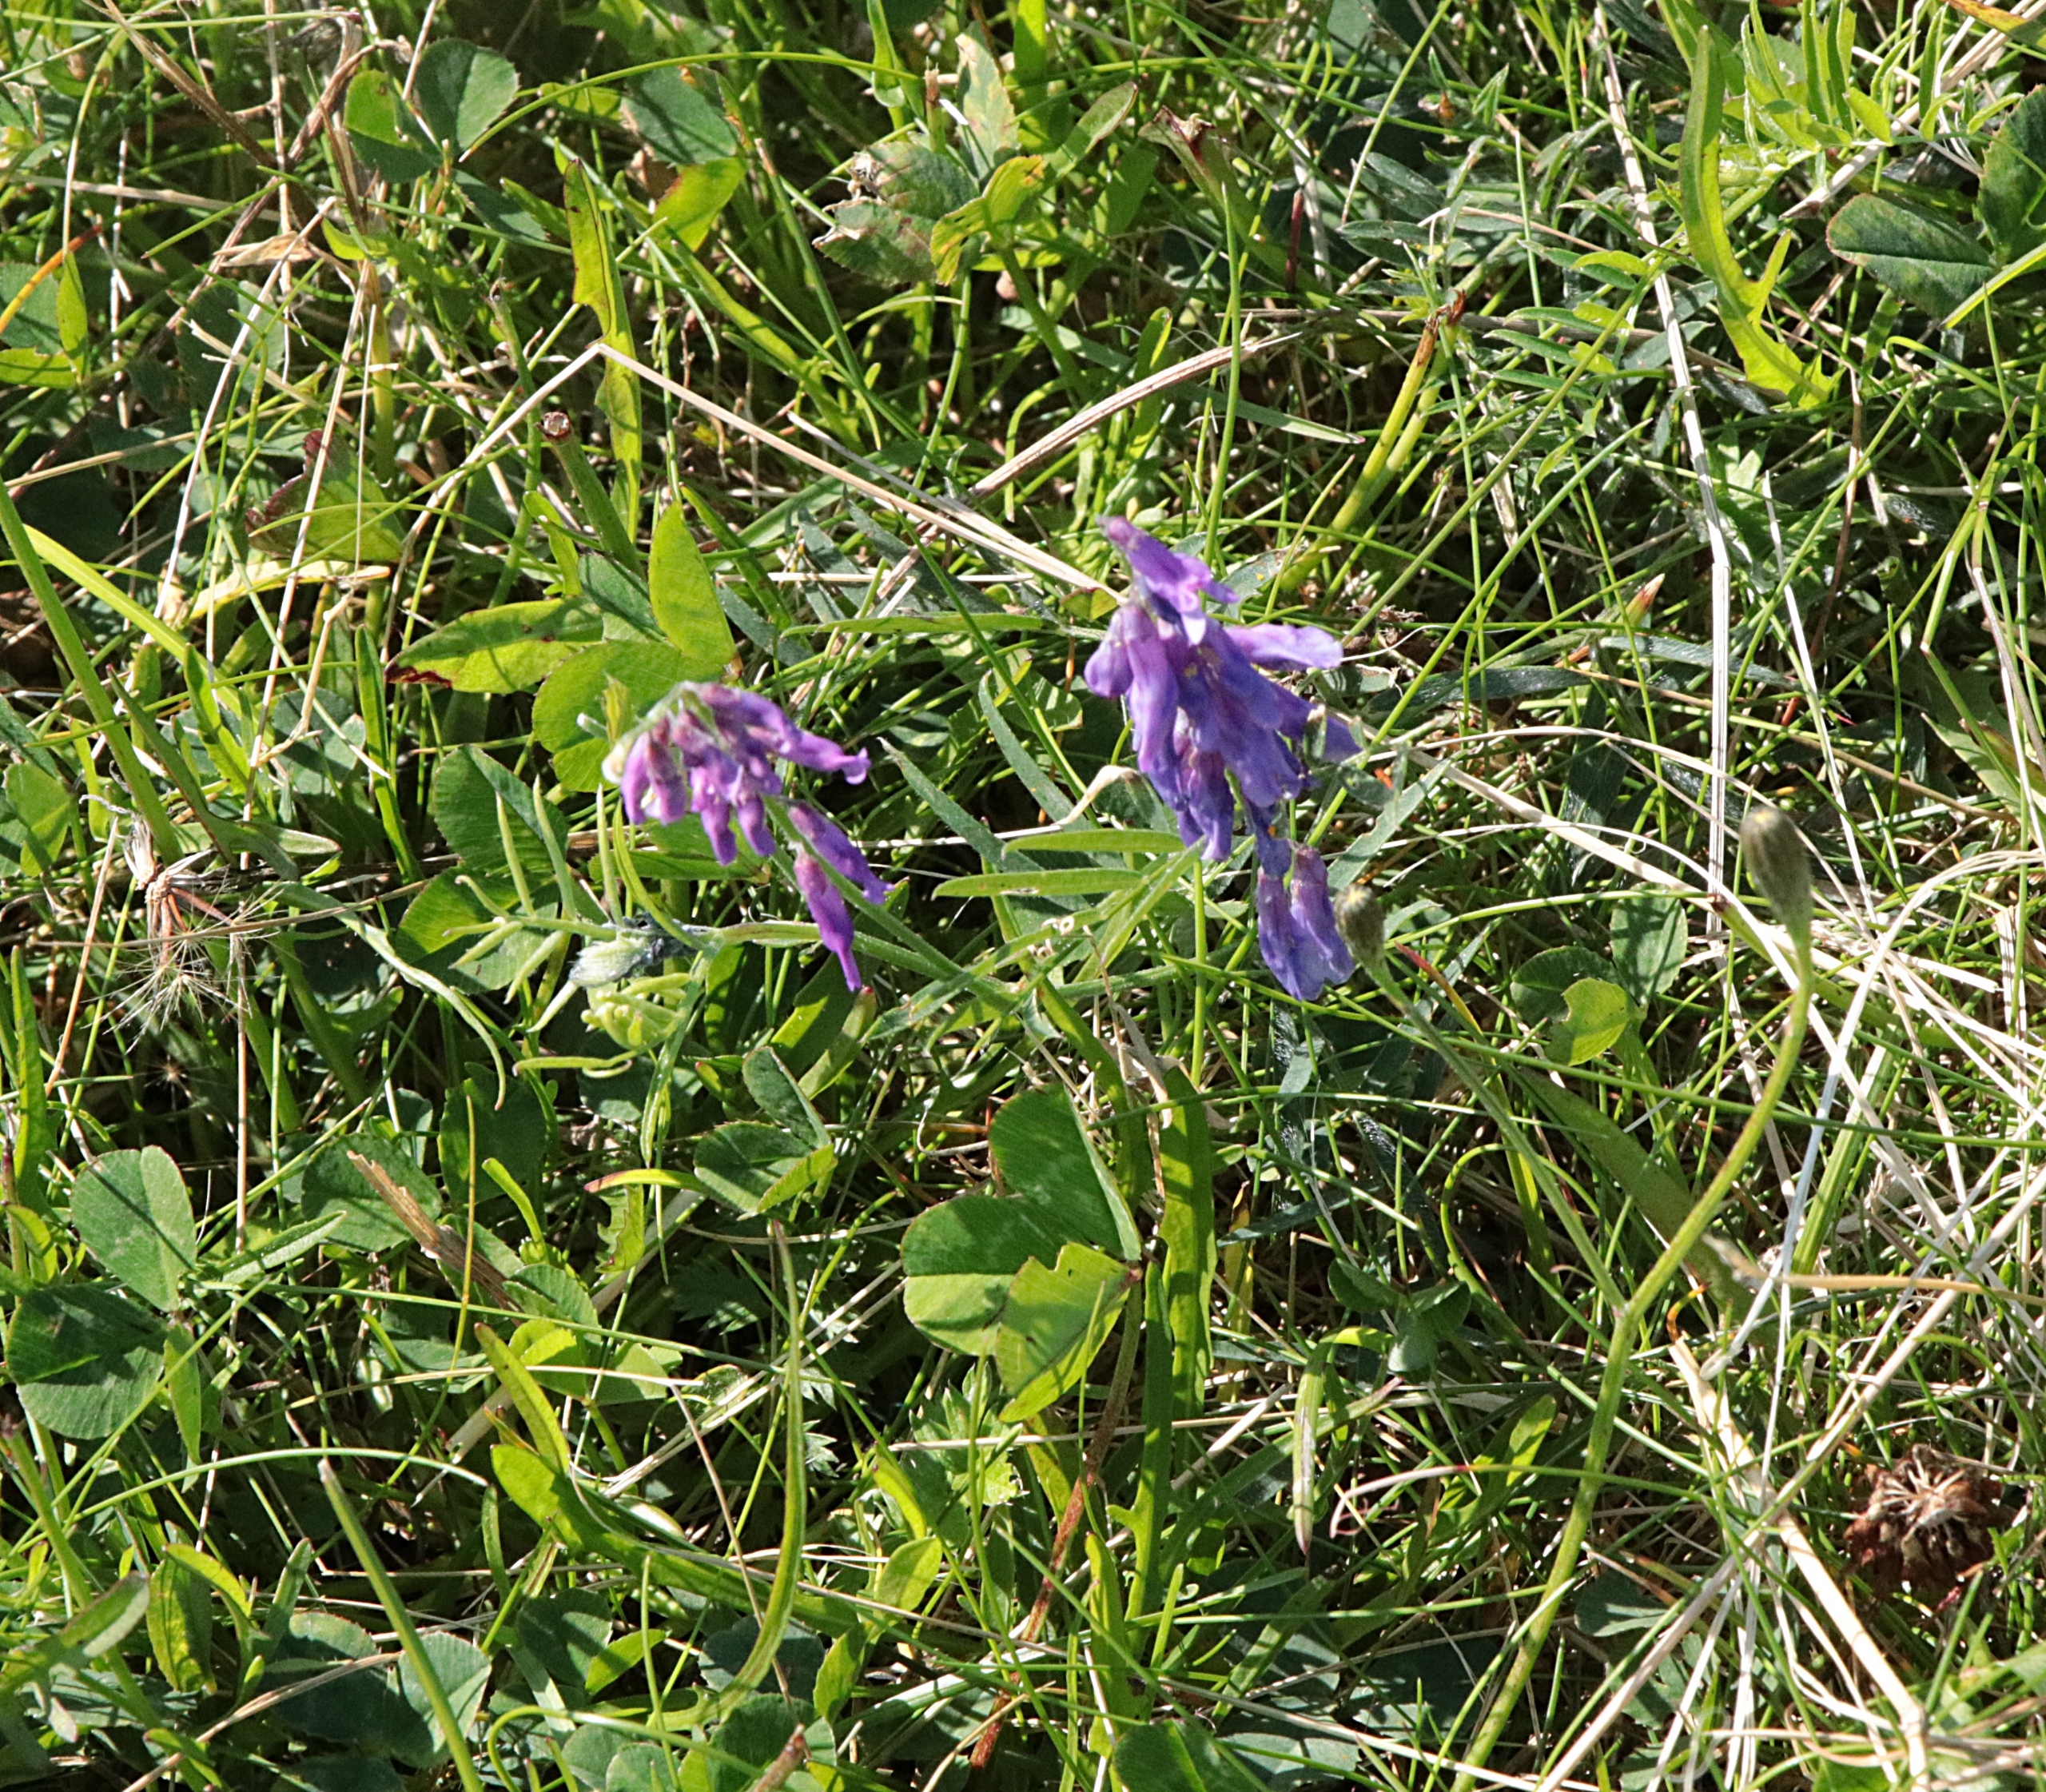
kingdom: Plantae
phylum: Tracheophyta
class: Magnoliopsida
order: Fabales
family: Fabaceae
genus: Vicia
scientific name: Vicia cracca
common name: Muse-vikke
